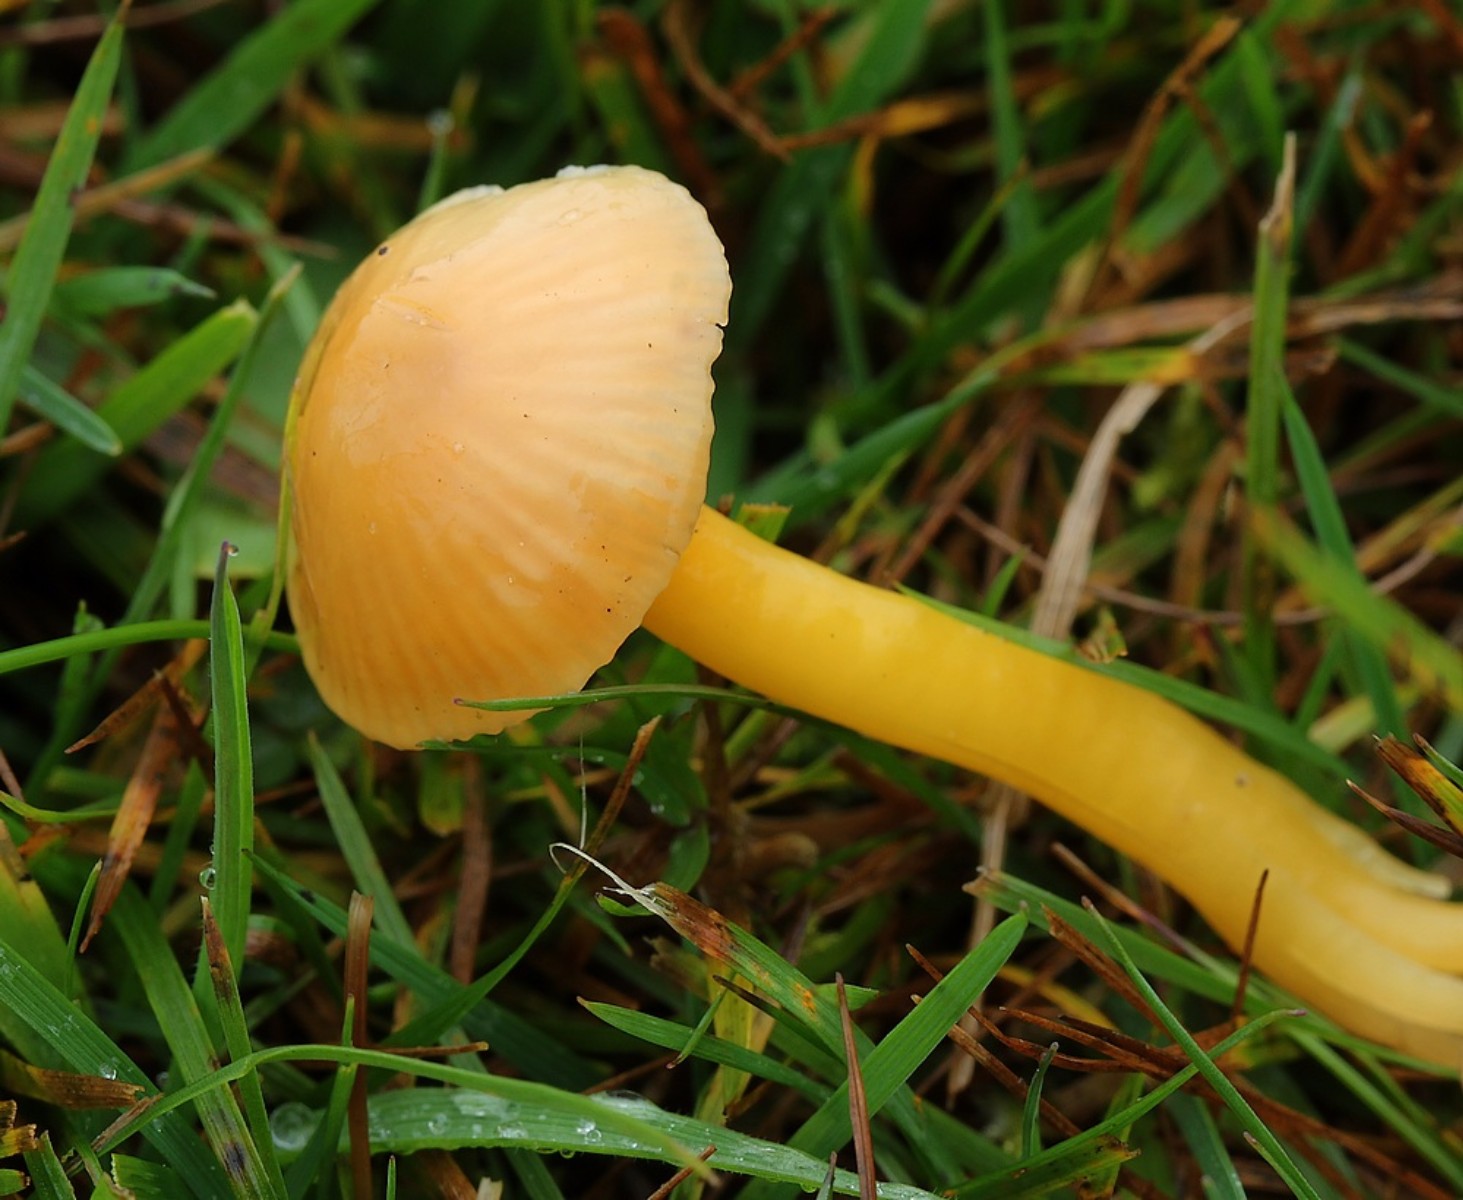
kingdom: Fungi
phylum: Basidiomycota
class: Agaricomycetes
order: Agaricales
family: Hygrophoraceae
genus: Hygrocybe
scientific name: Hygrocybe ceracea
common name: voksgul vokshat
